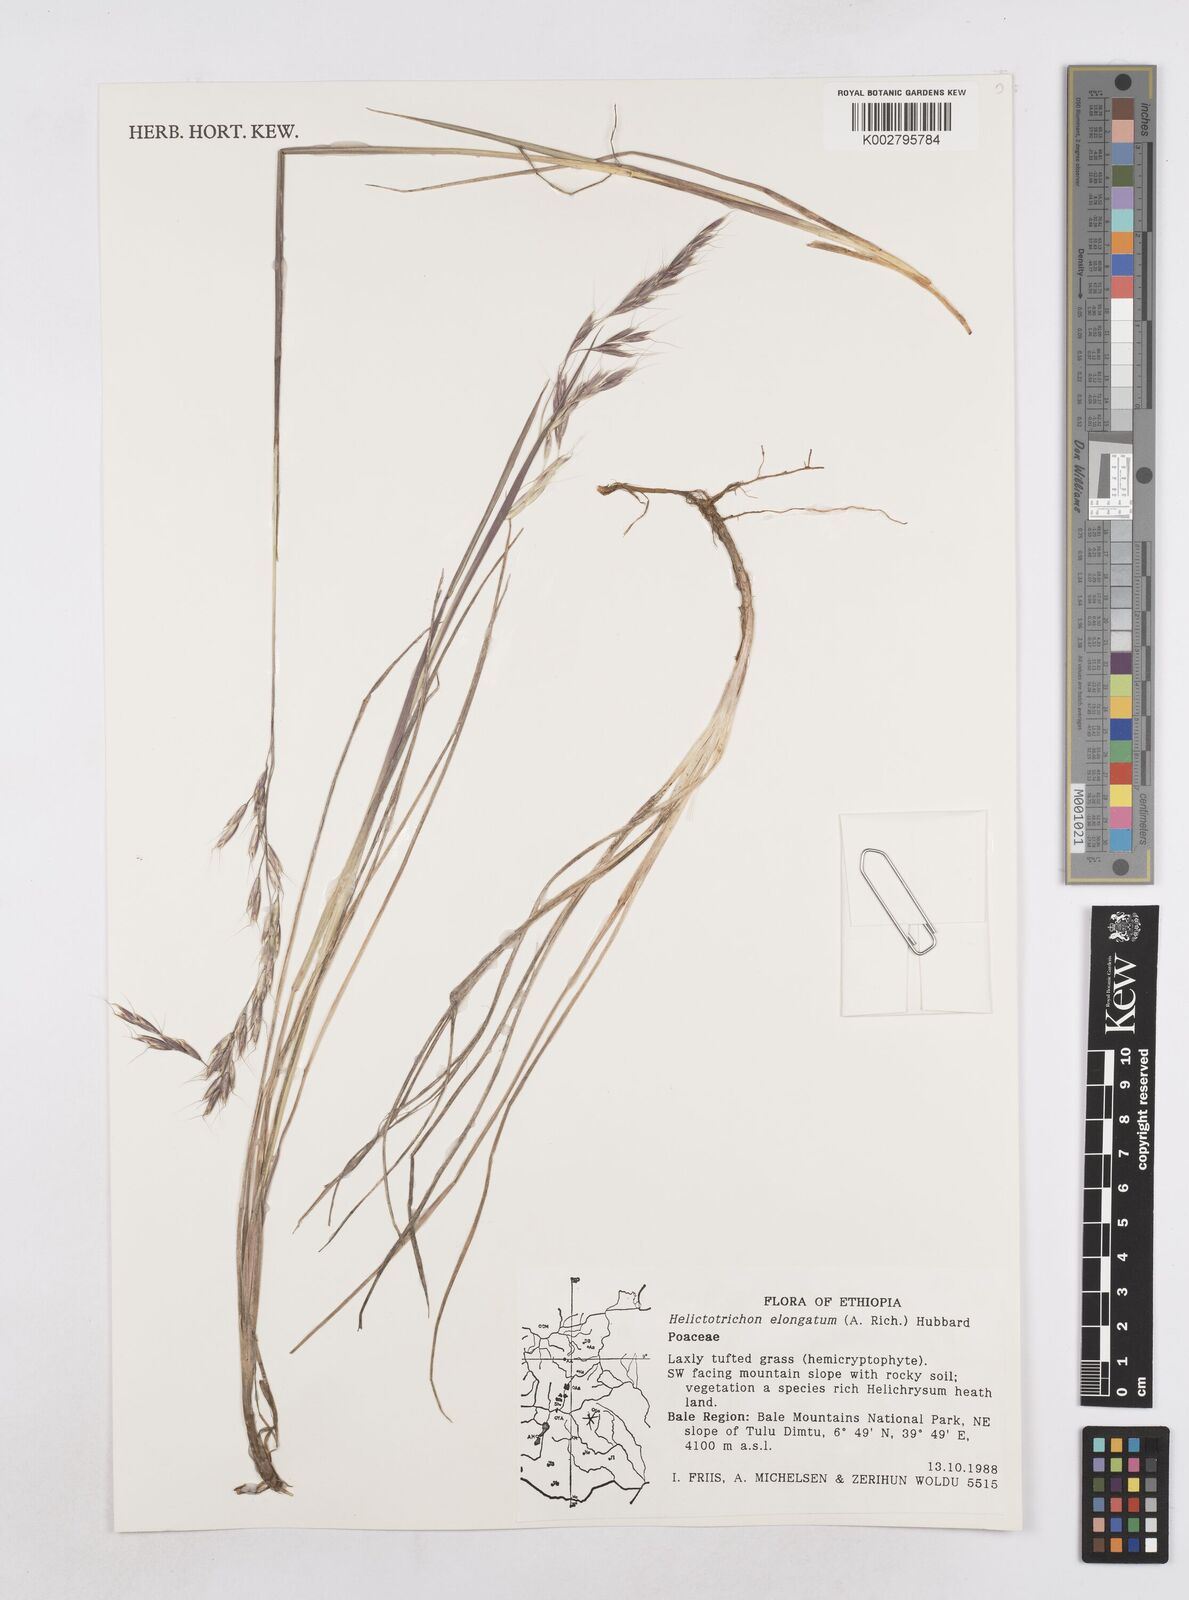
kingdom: Plantae
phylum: Tracheophyta
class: Liliopsida
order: Poales
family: Poaceae
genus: Trisetopsis
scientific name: Trisetopsis elongata
